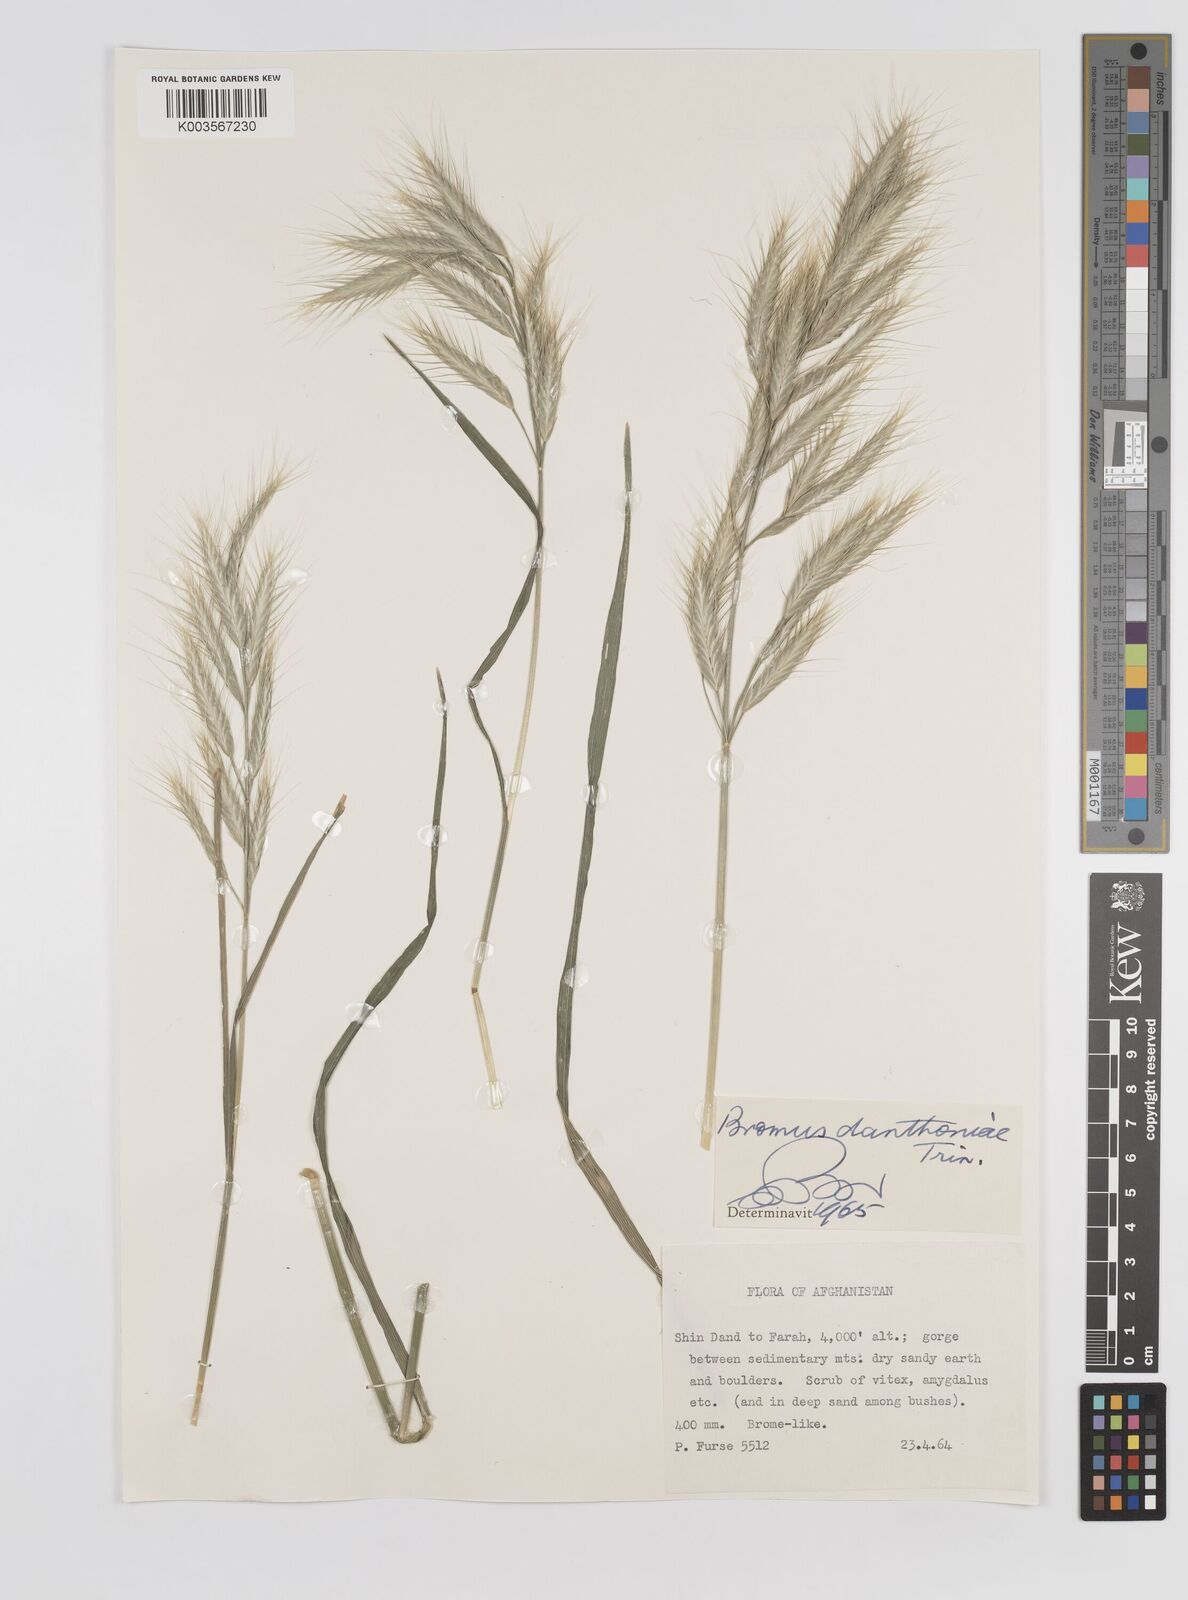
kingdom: Plantae
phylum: Tracheophyta
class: Liliopsida
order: Poales
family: Poaceae
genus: Bromus
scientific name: Bromus danthoniae
